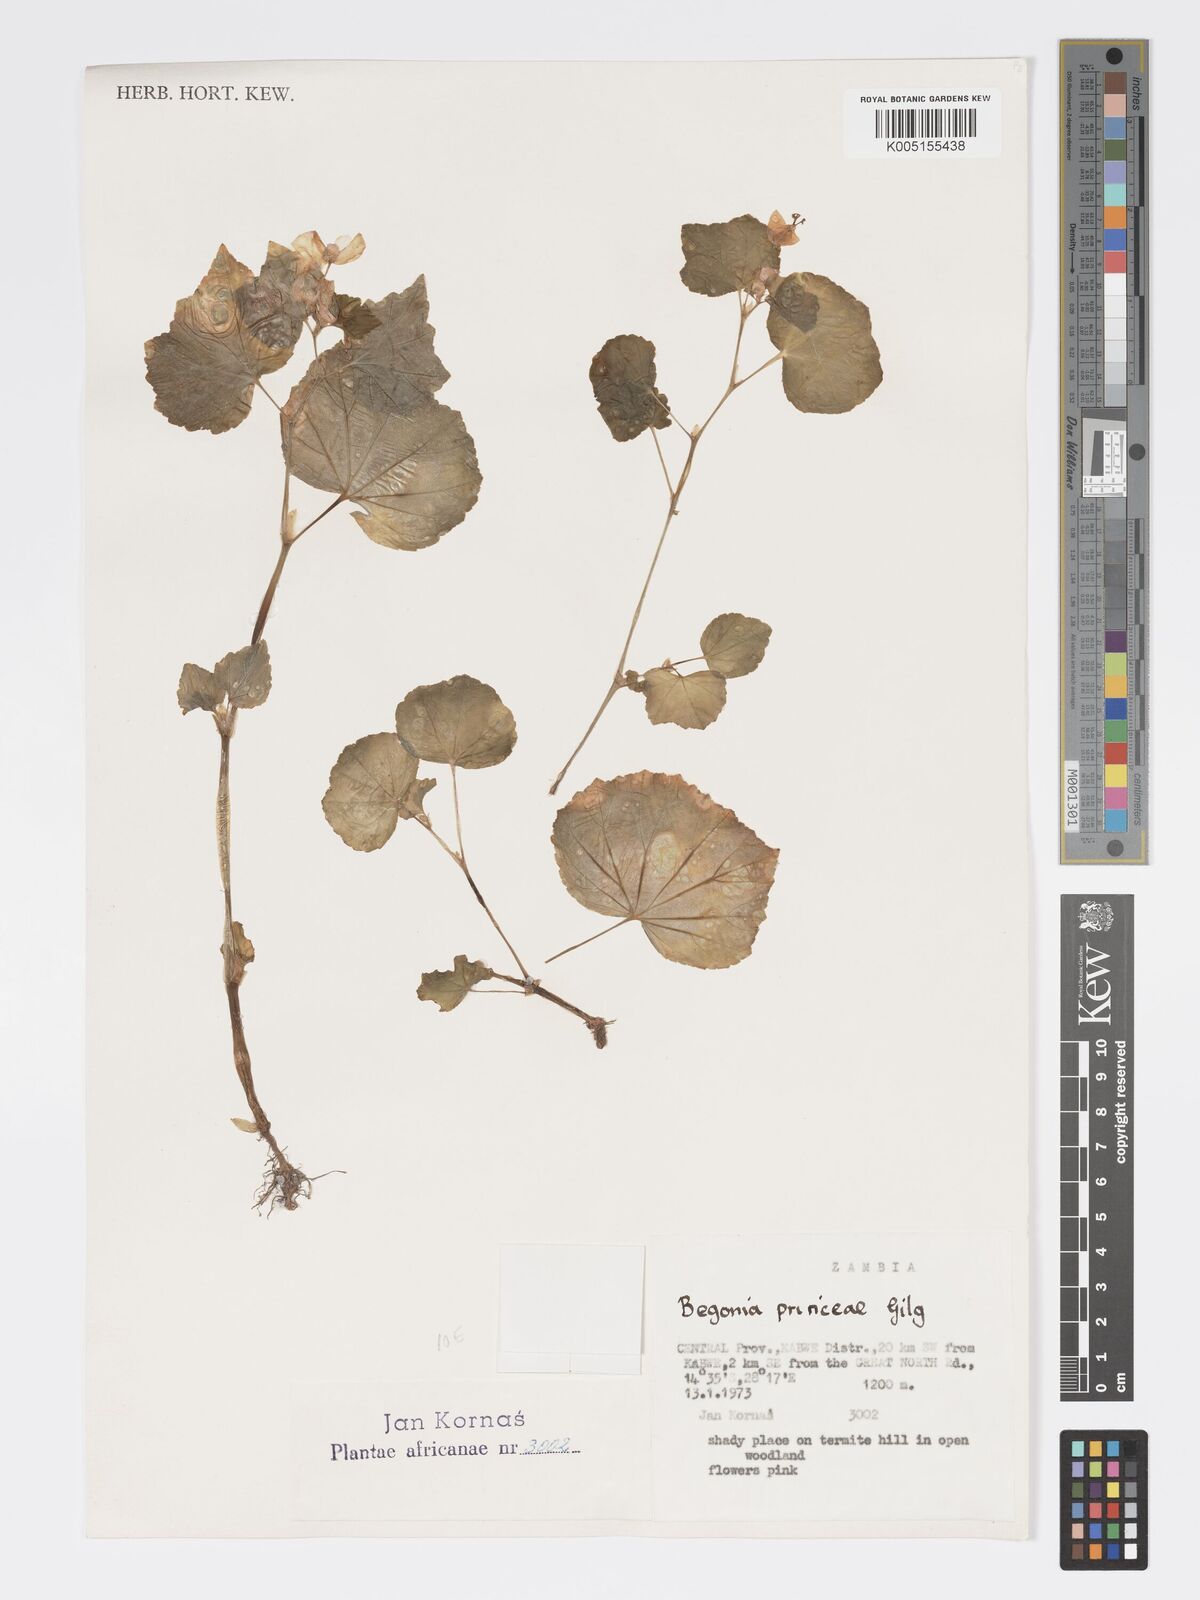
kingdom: Plantae
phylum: Tracheophyta
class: Magnoliopsida
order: Cucurbitales
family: Begoniaceae
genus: Begonia
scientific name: Begonia princeae
